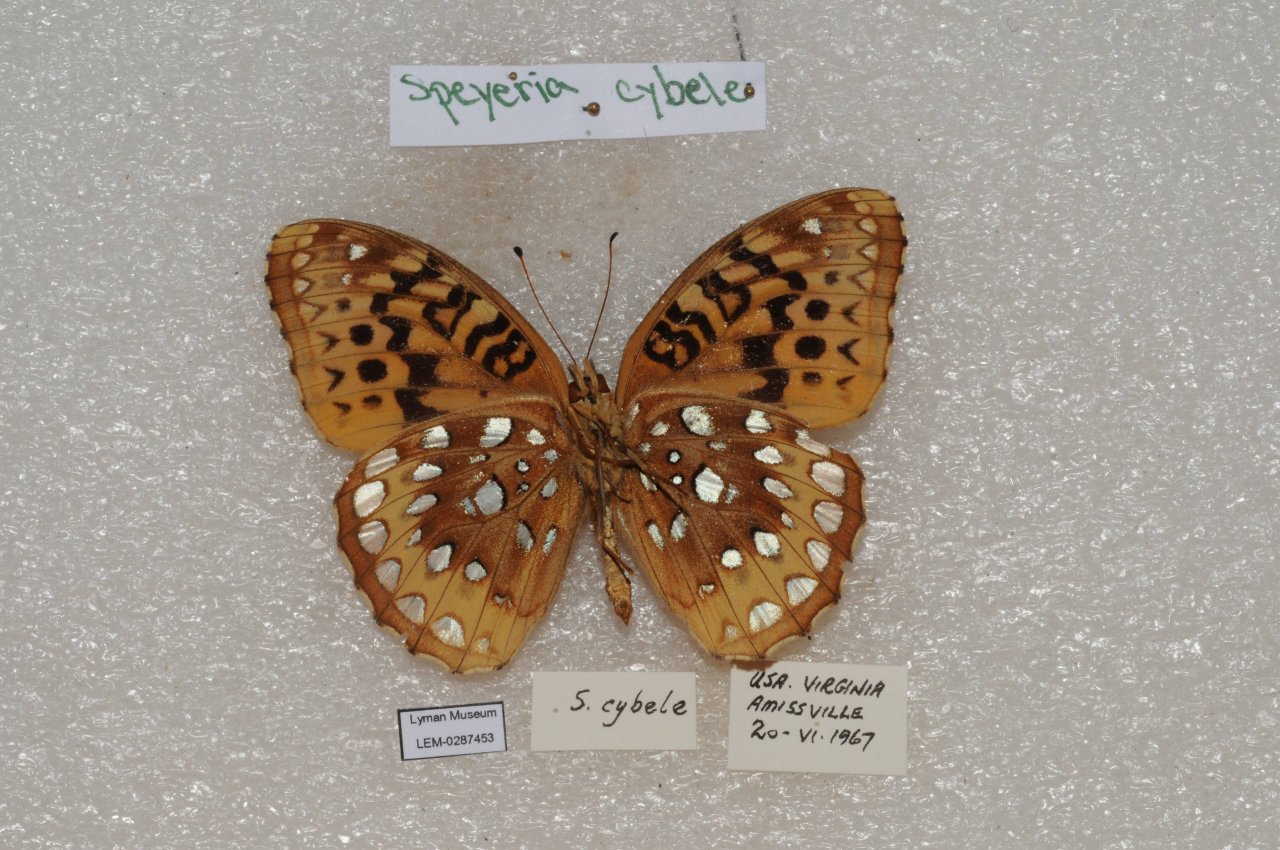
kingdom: Animalia
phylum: Arthropoda
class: Insecta
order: Lepidoptera
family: Nymphalidae
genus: Speyeria
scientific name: Speyeria cybele
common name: Great Spangled Fritillary
